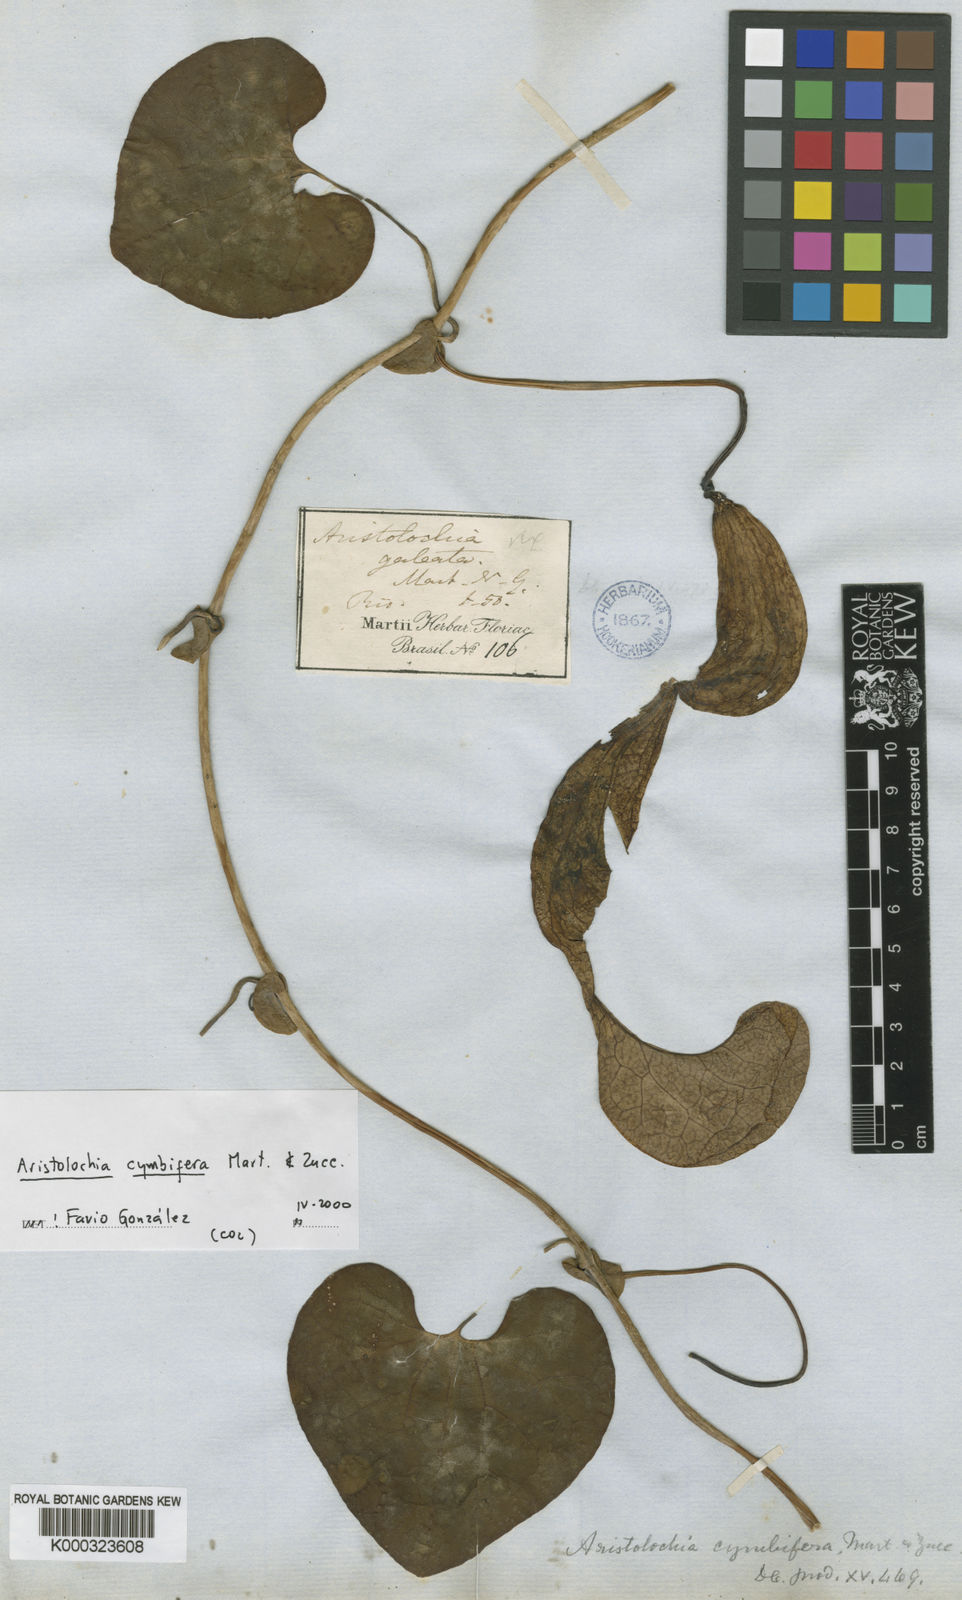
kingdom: Plantae
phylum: Tracheophyta
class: Magnoliopsida
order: Piperales
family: Aristolochiaceae
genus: Aristolochia
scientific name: Aristolochia cymbifera
